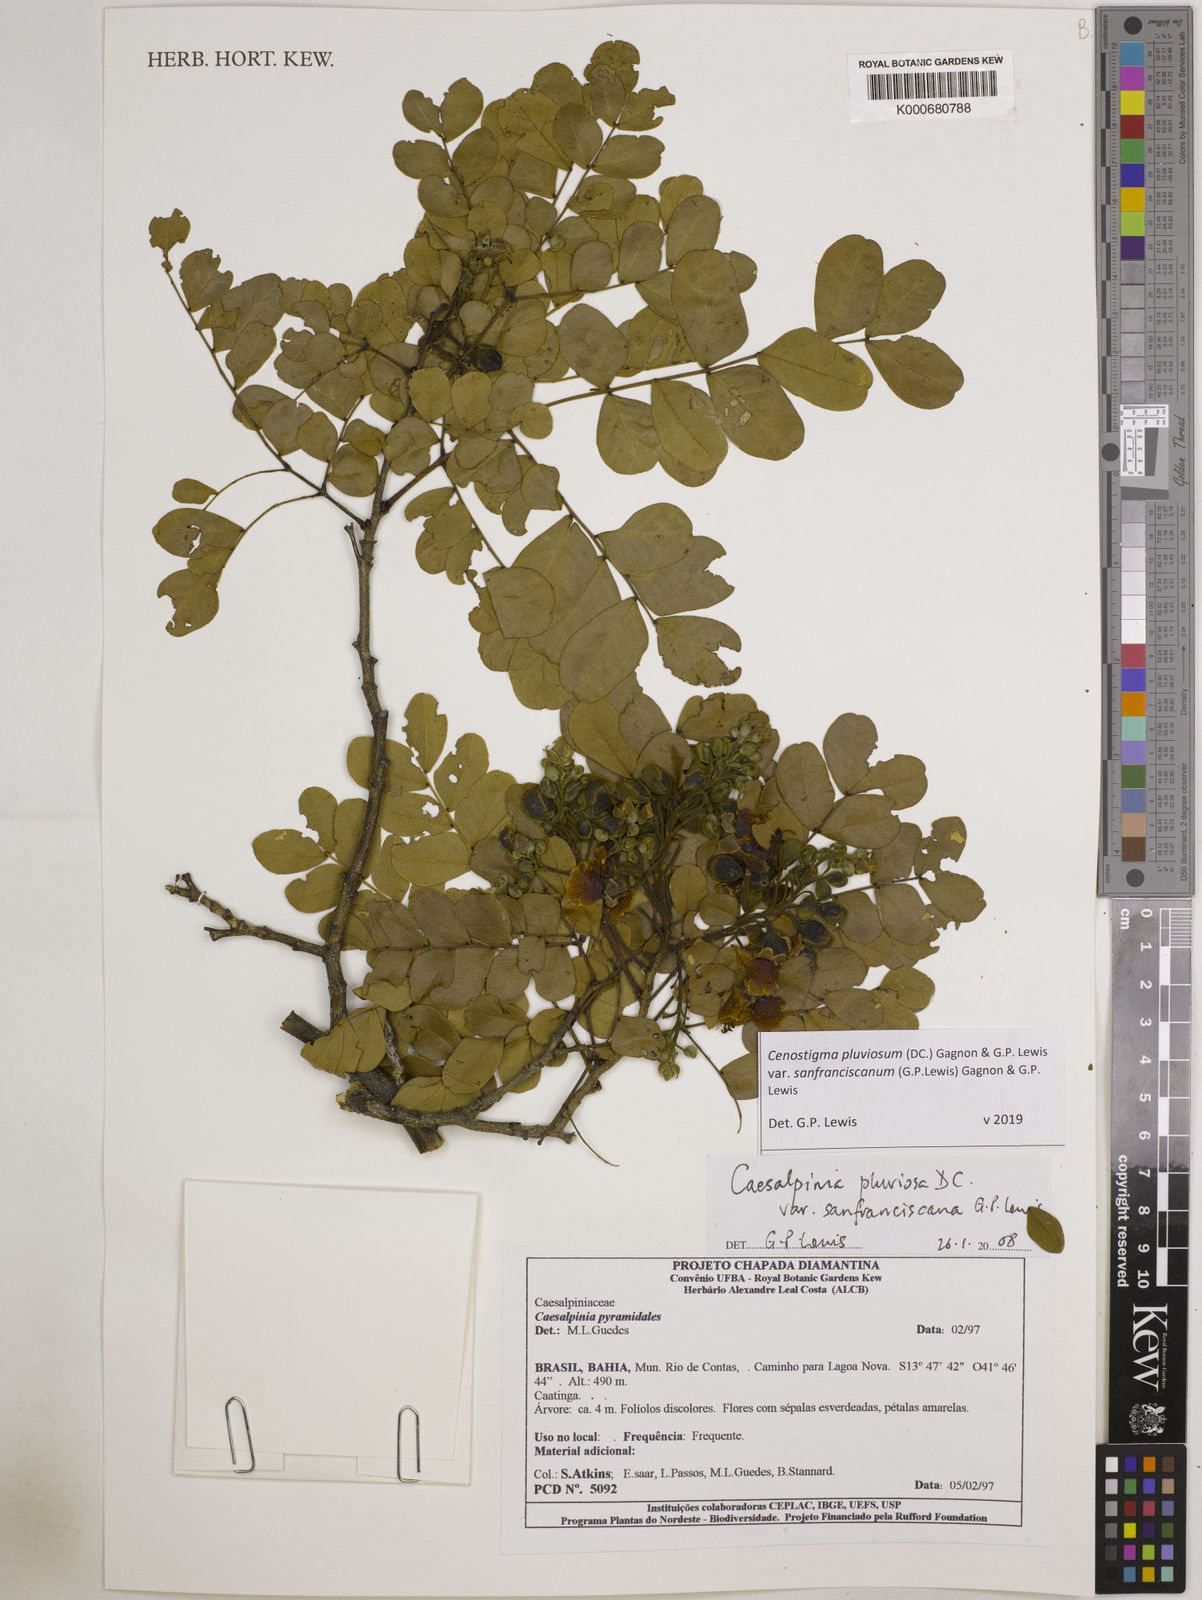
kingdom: Plantae
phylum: Tracheophyta
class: Magnoliopsida
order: Fabales
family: Fabaceae
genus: Cenostigma
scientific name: Cenostigma pluviosum
